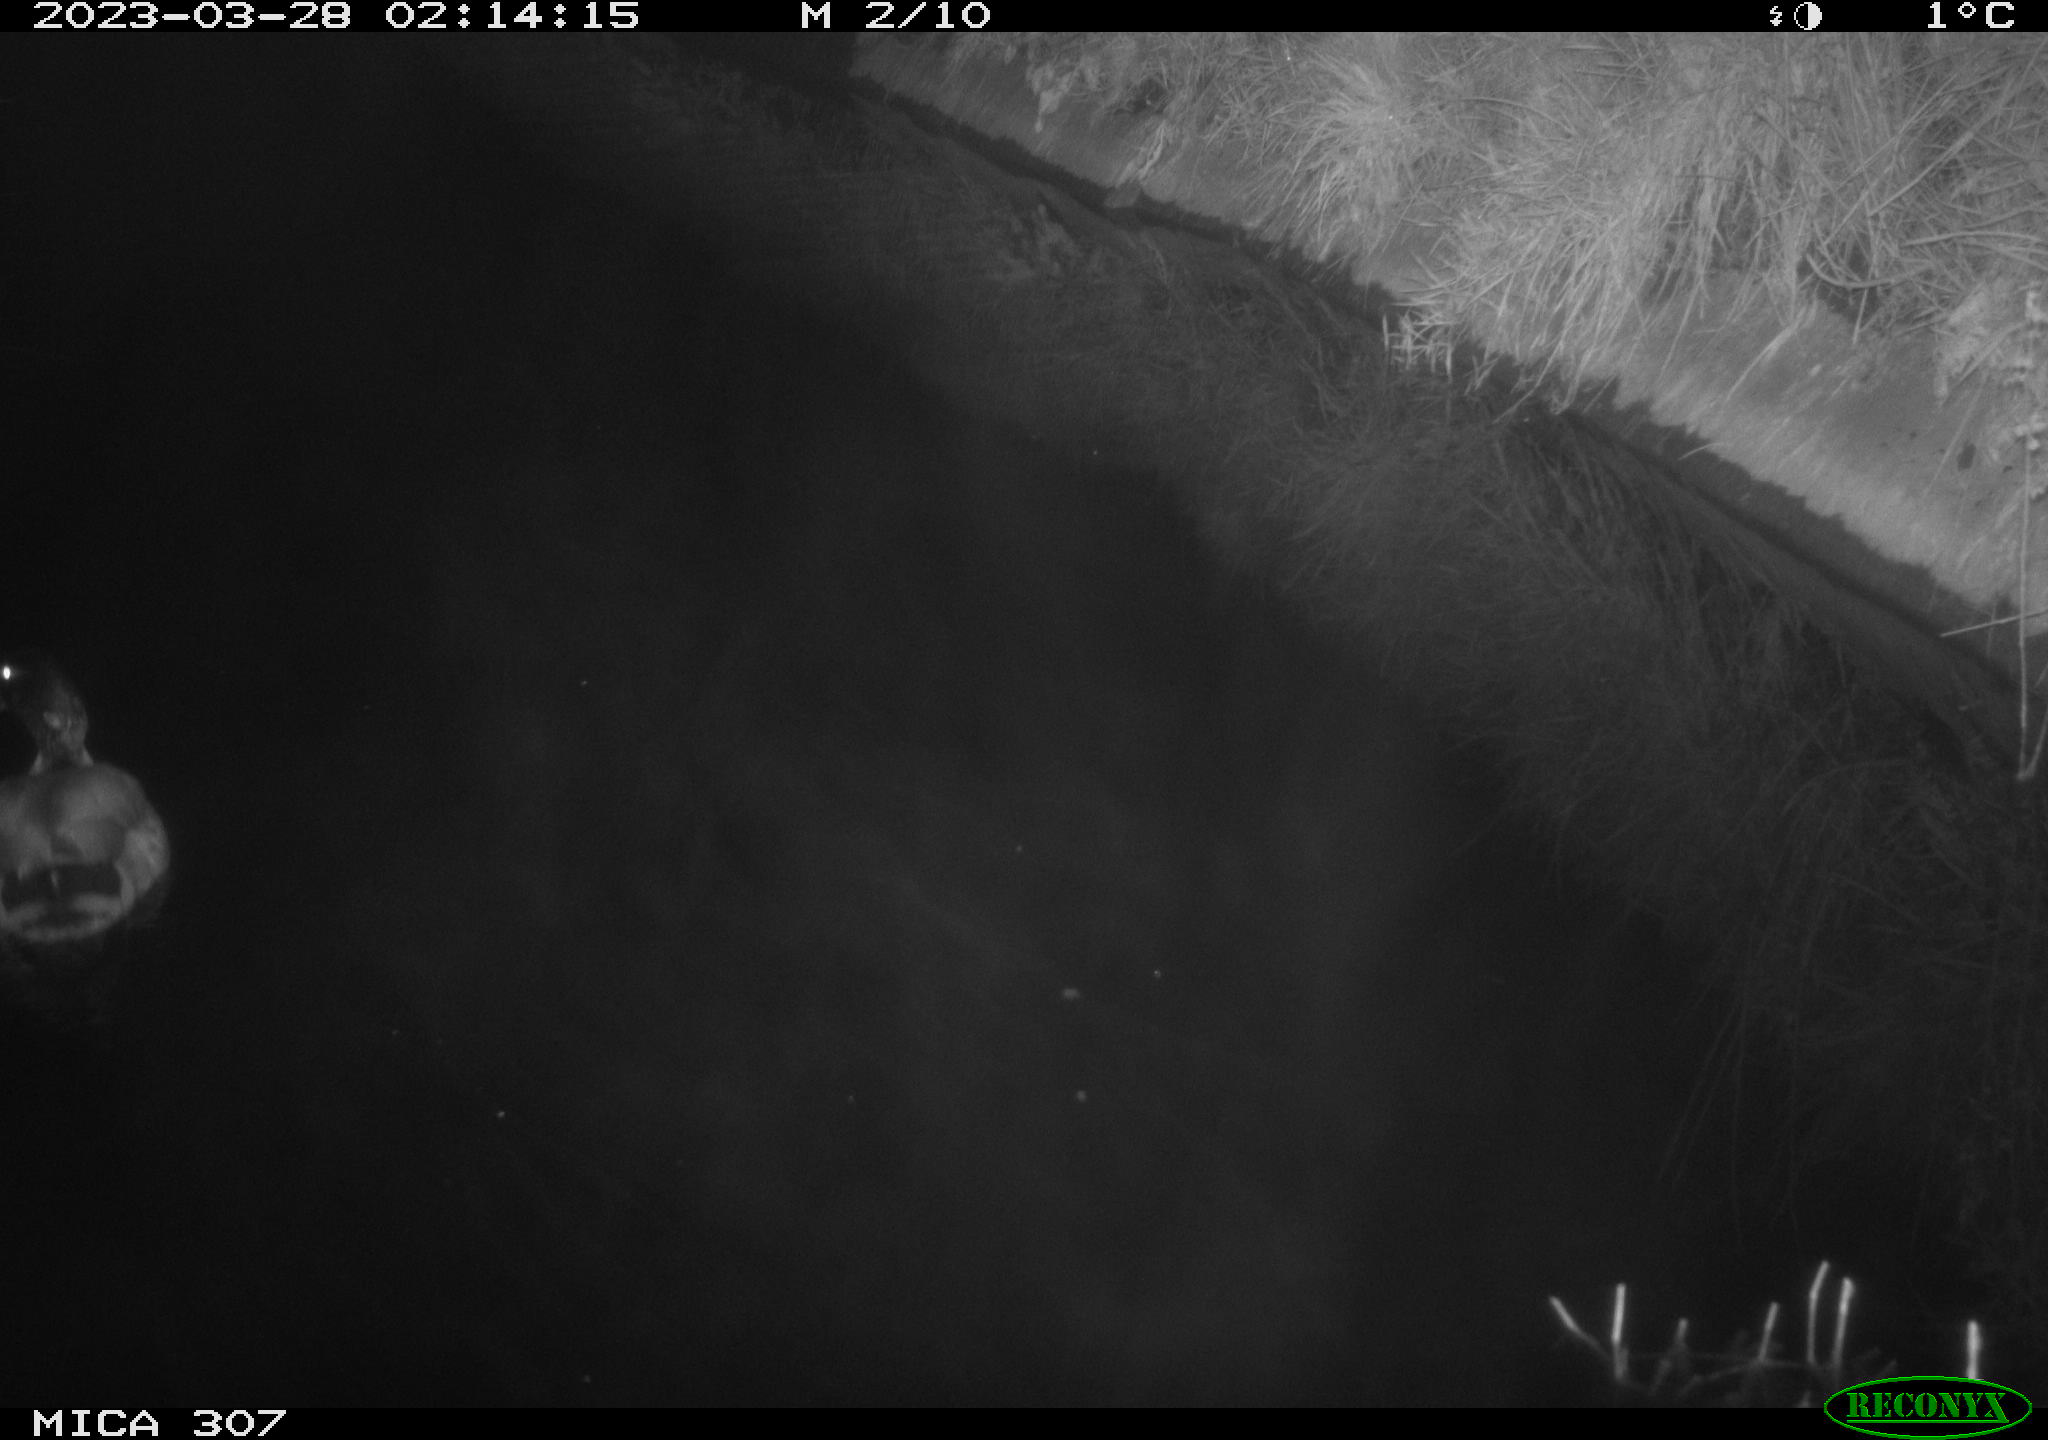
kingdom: Animalia
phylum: Chordata
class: Aves
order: Anseriformes
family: Anatidae
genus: Anas
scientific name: Anas
